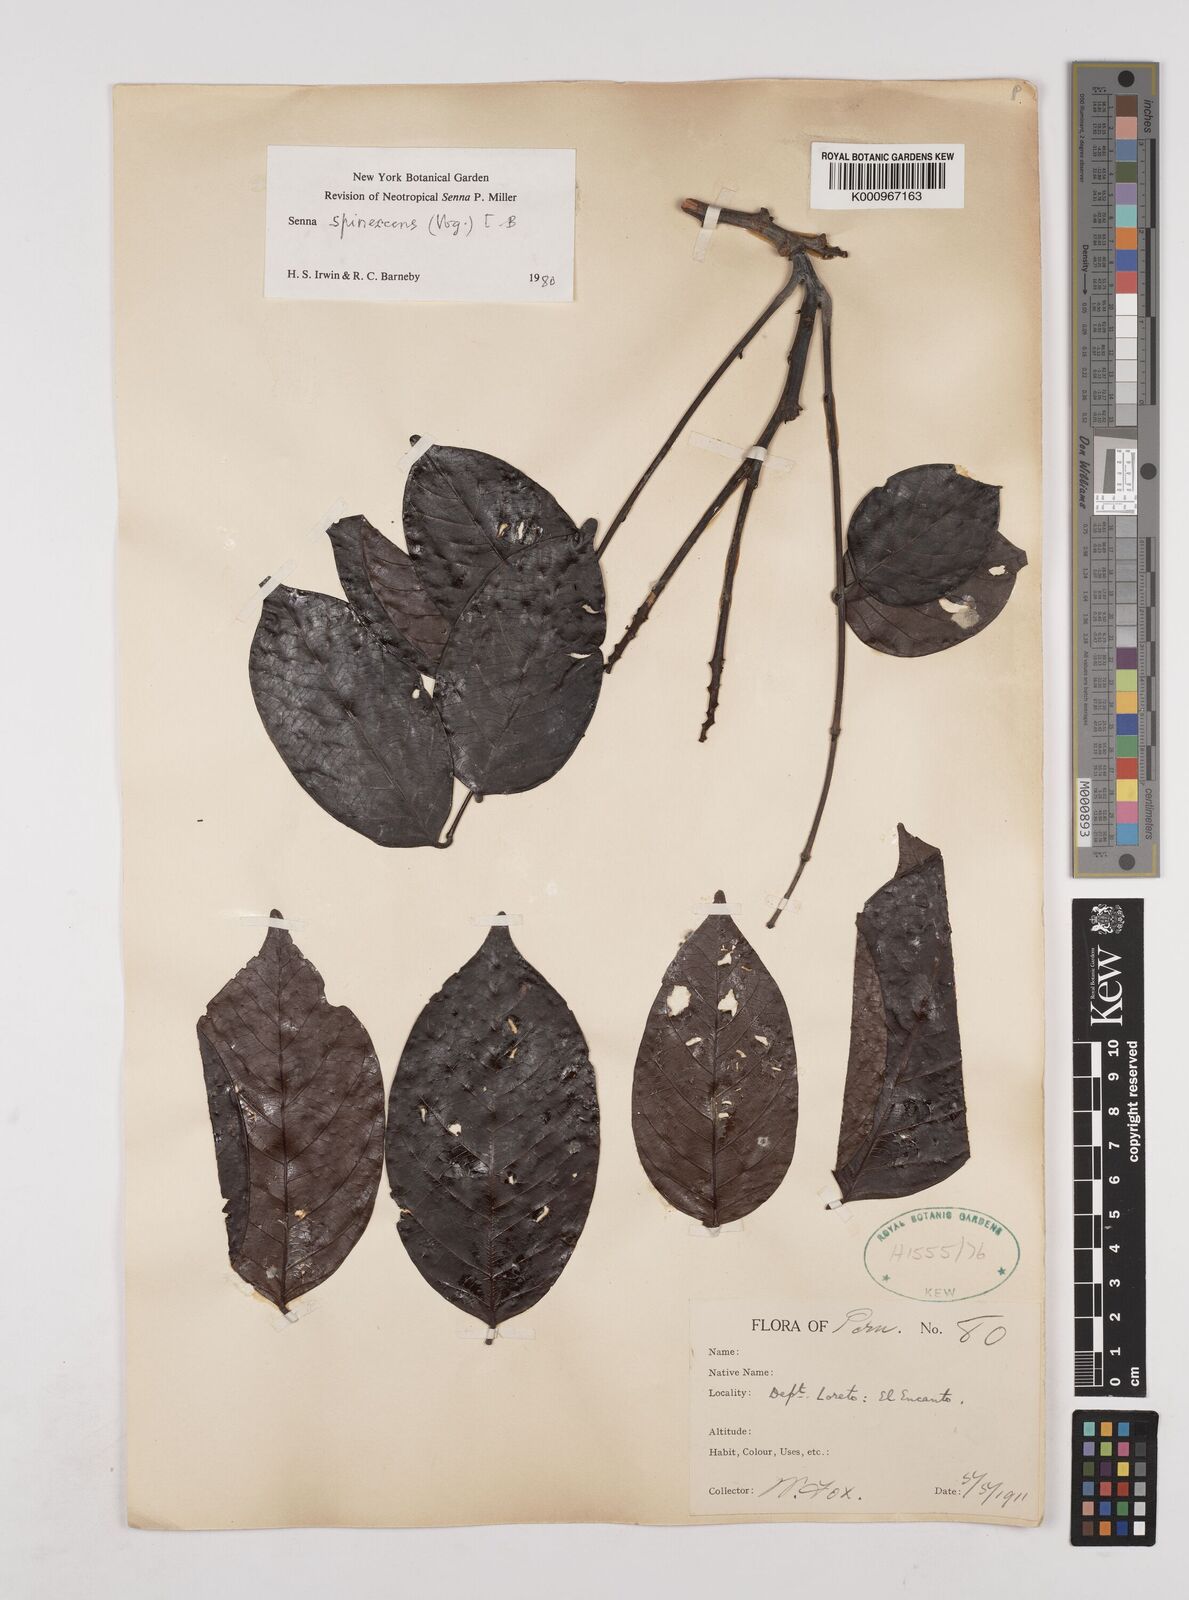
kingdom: Plantae
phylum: Tracheophyta
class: Magnoliopsida
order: Fabales
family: Fabaceae
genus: Senna
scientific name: Senna spinescens
